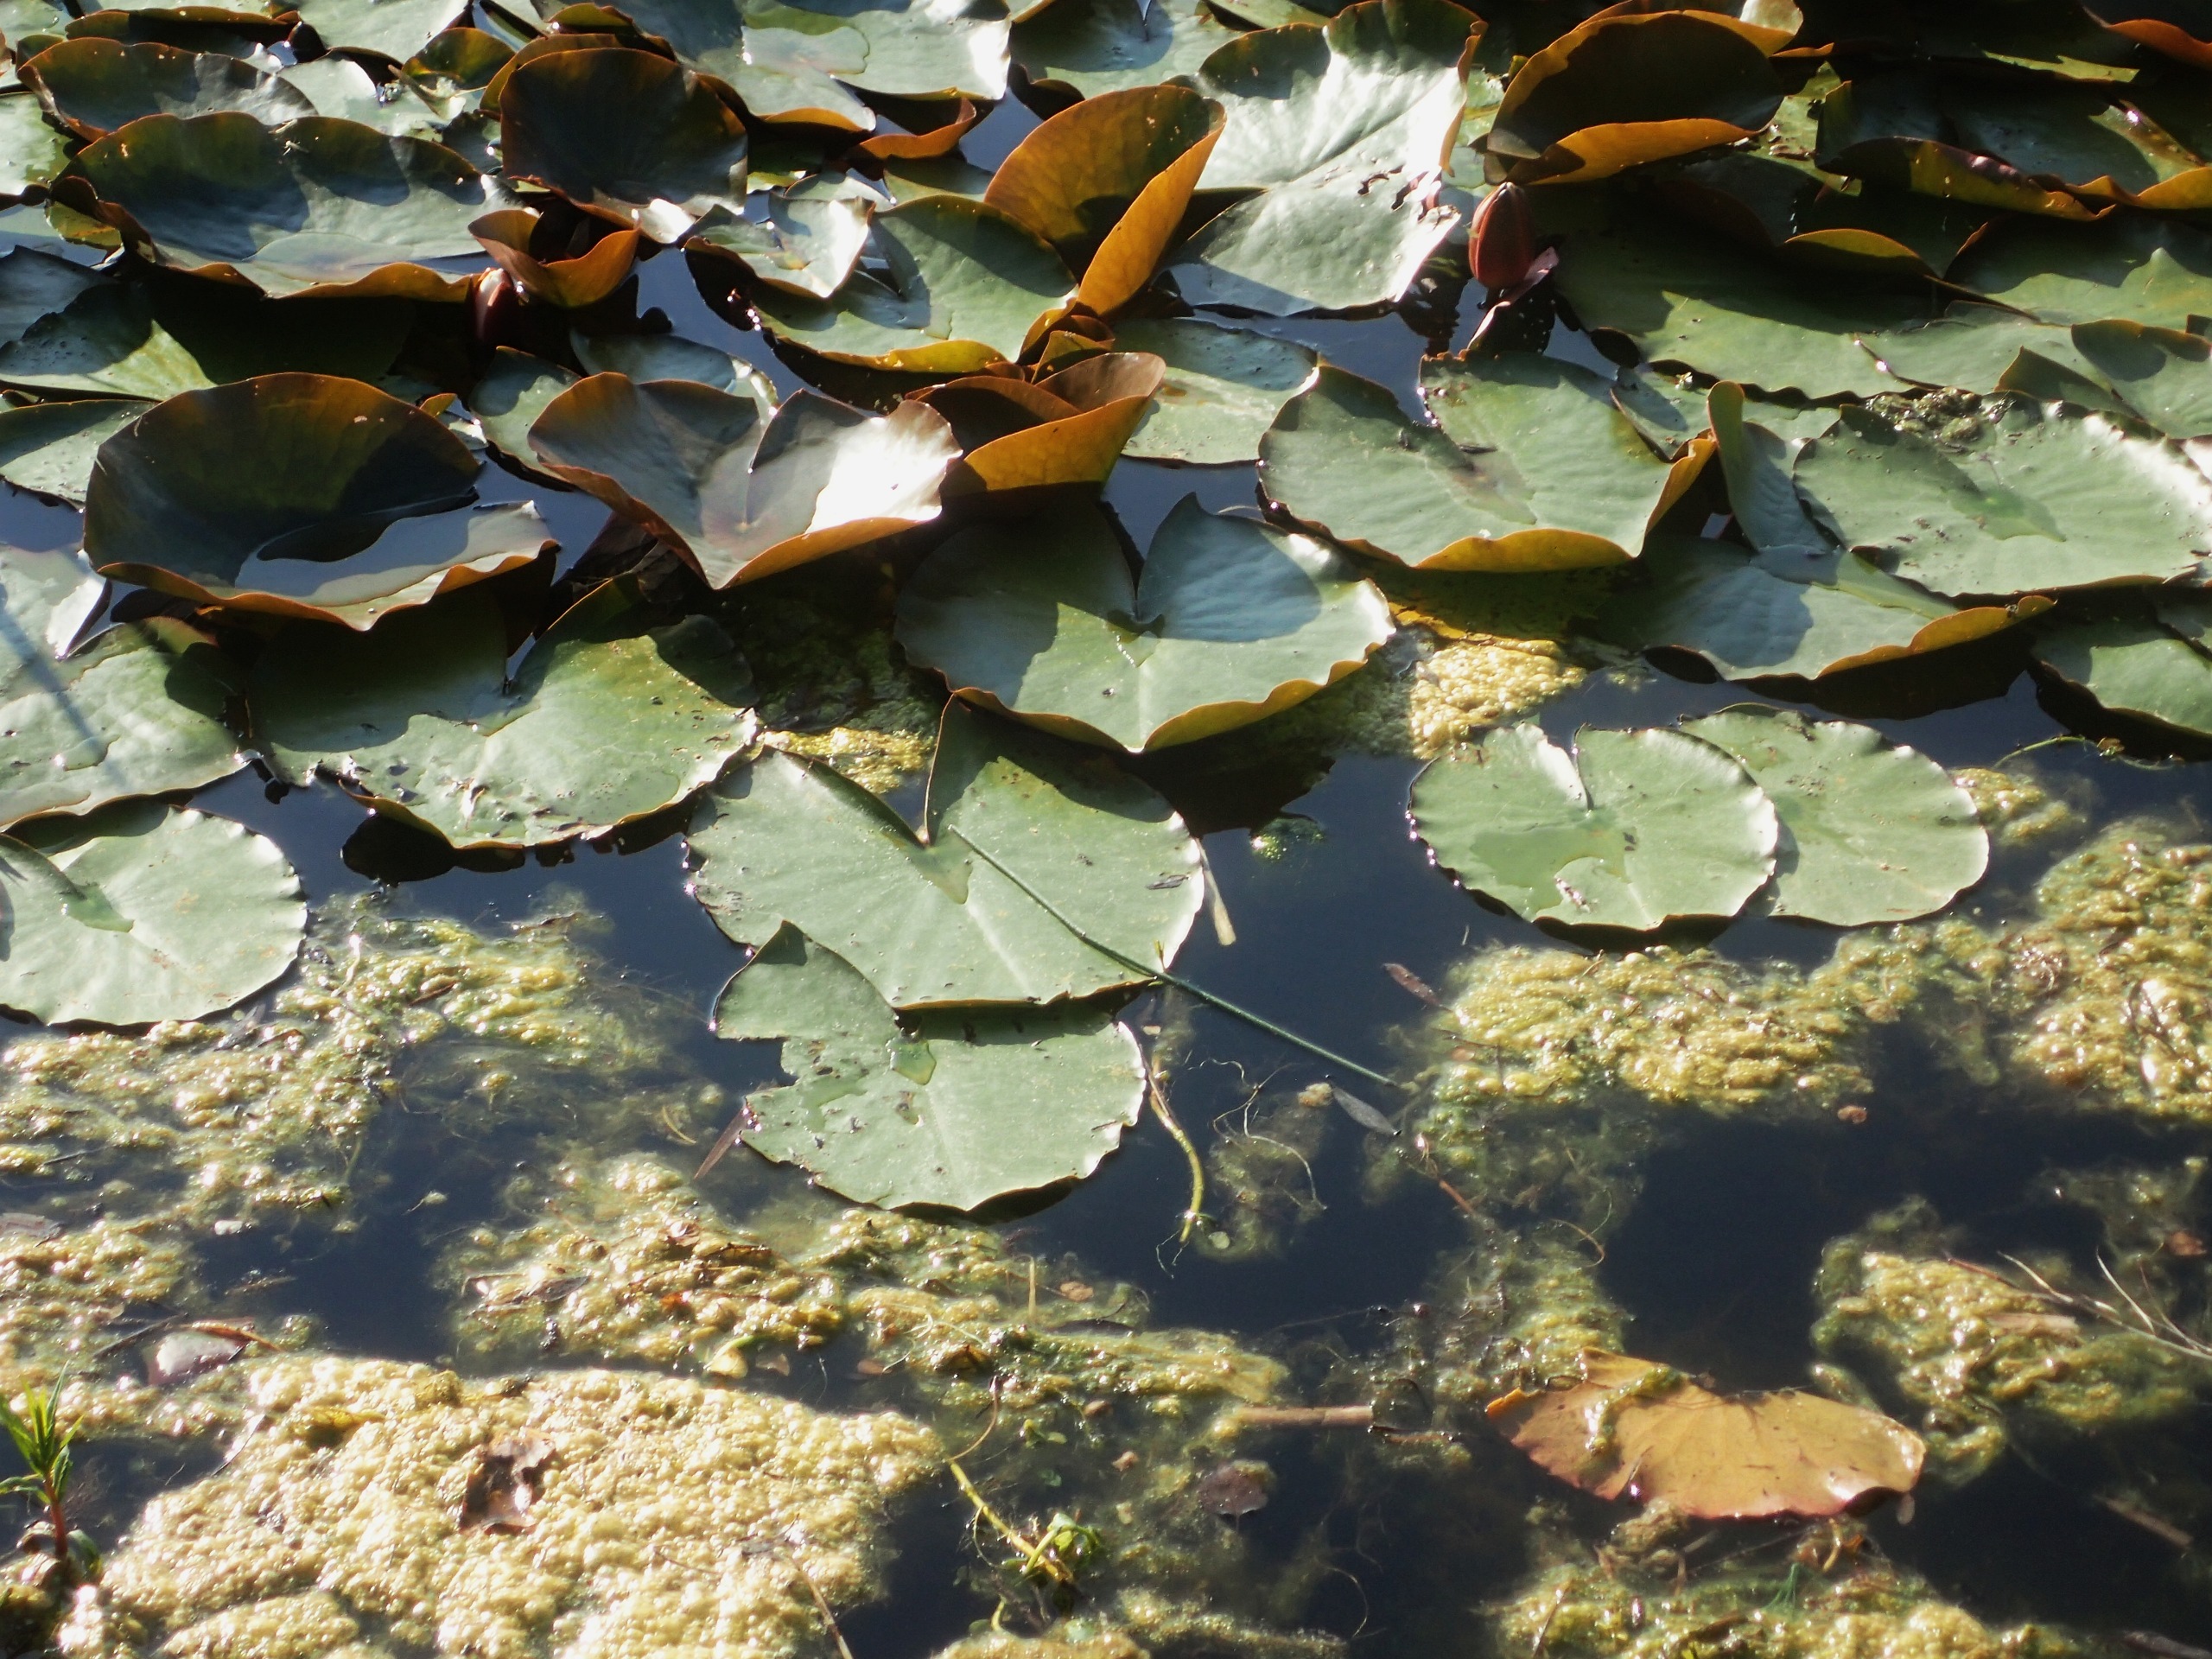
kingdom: Plantae
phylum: Tracheophyta
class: Magnoliopsida
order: Nymphaeales
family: Nymphaeaceae
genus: Nymphaea
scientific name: Nymphaea alba
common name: Hvid åkande
